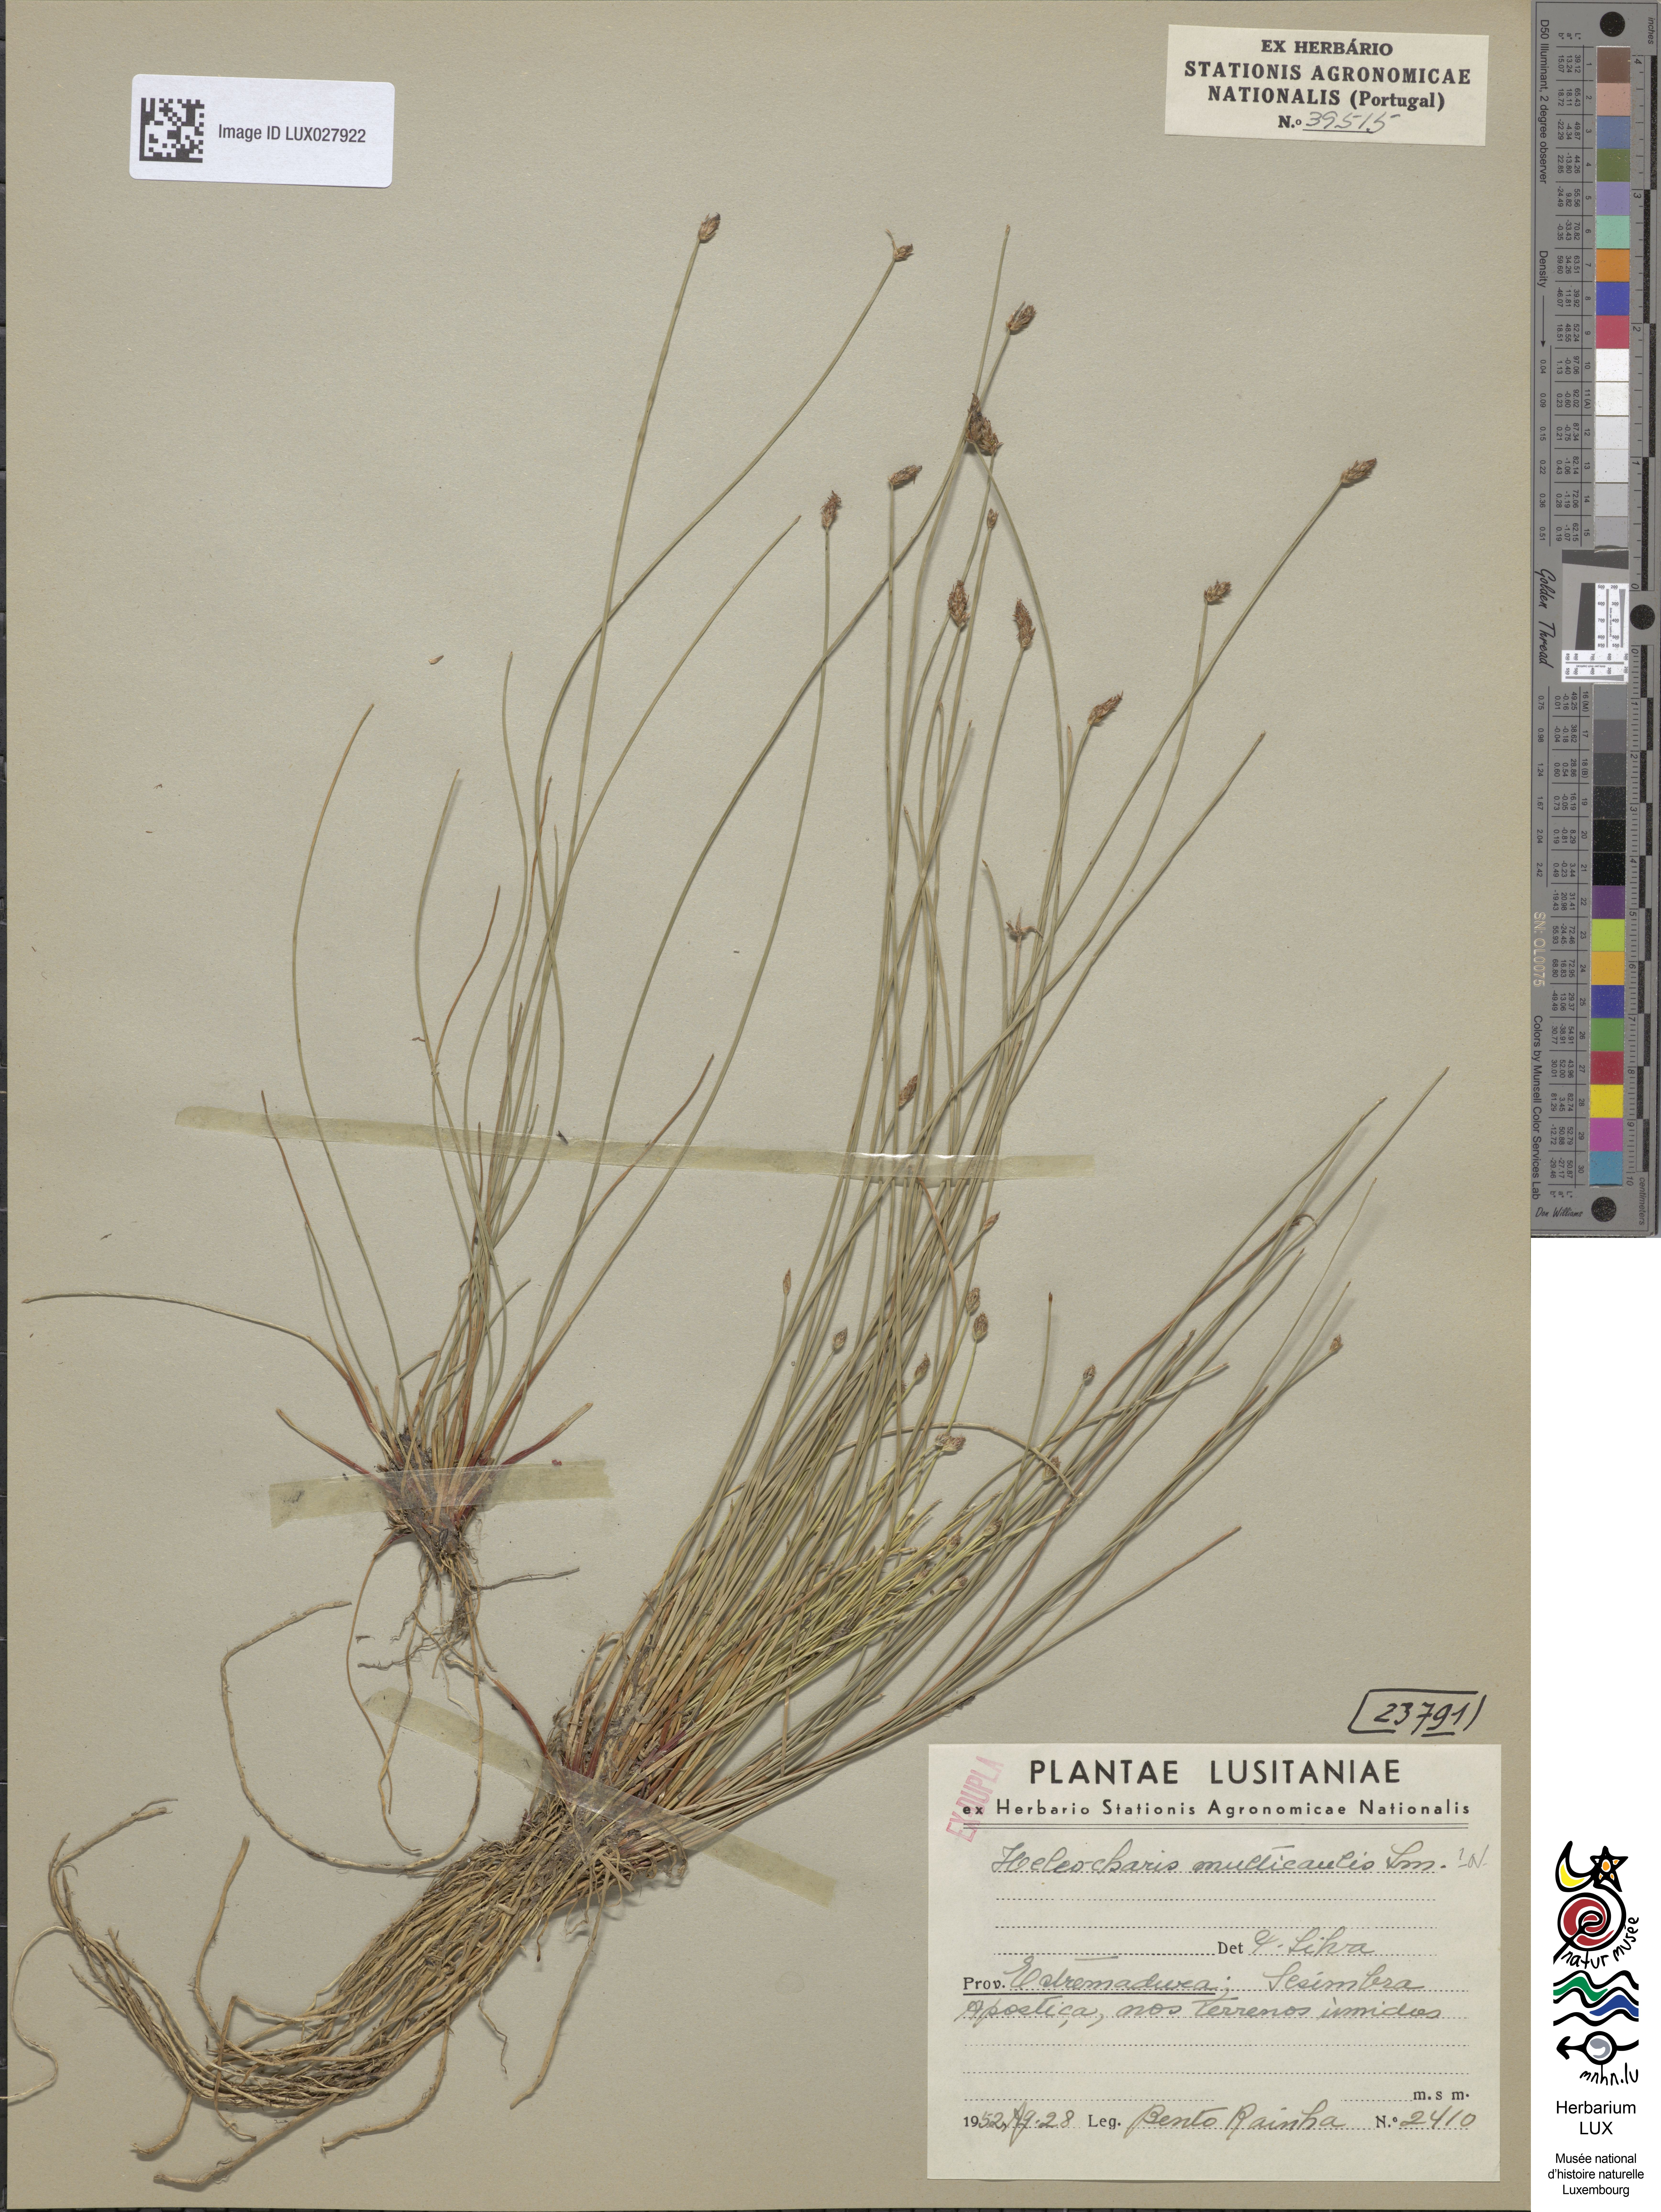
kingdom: Plantae
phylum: Tracheophyta
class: Liliopsida
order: Poales
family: Cyperaceae
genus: Eleocharis
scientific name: Eleocharis multicaulis
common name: Many-stalked spike-rush
